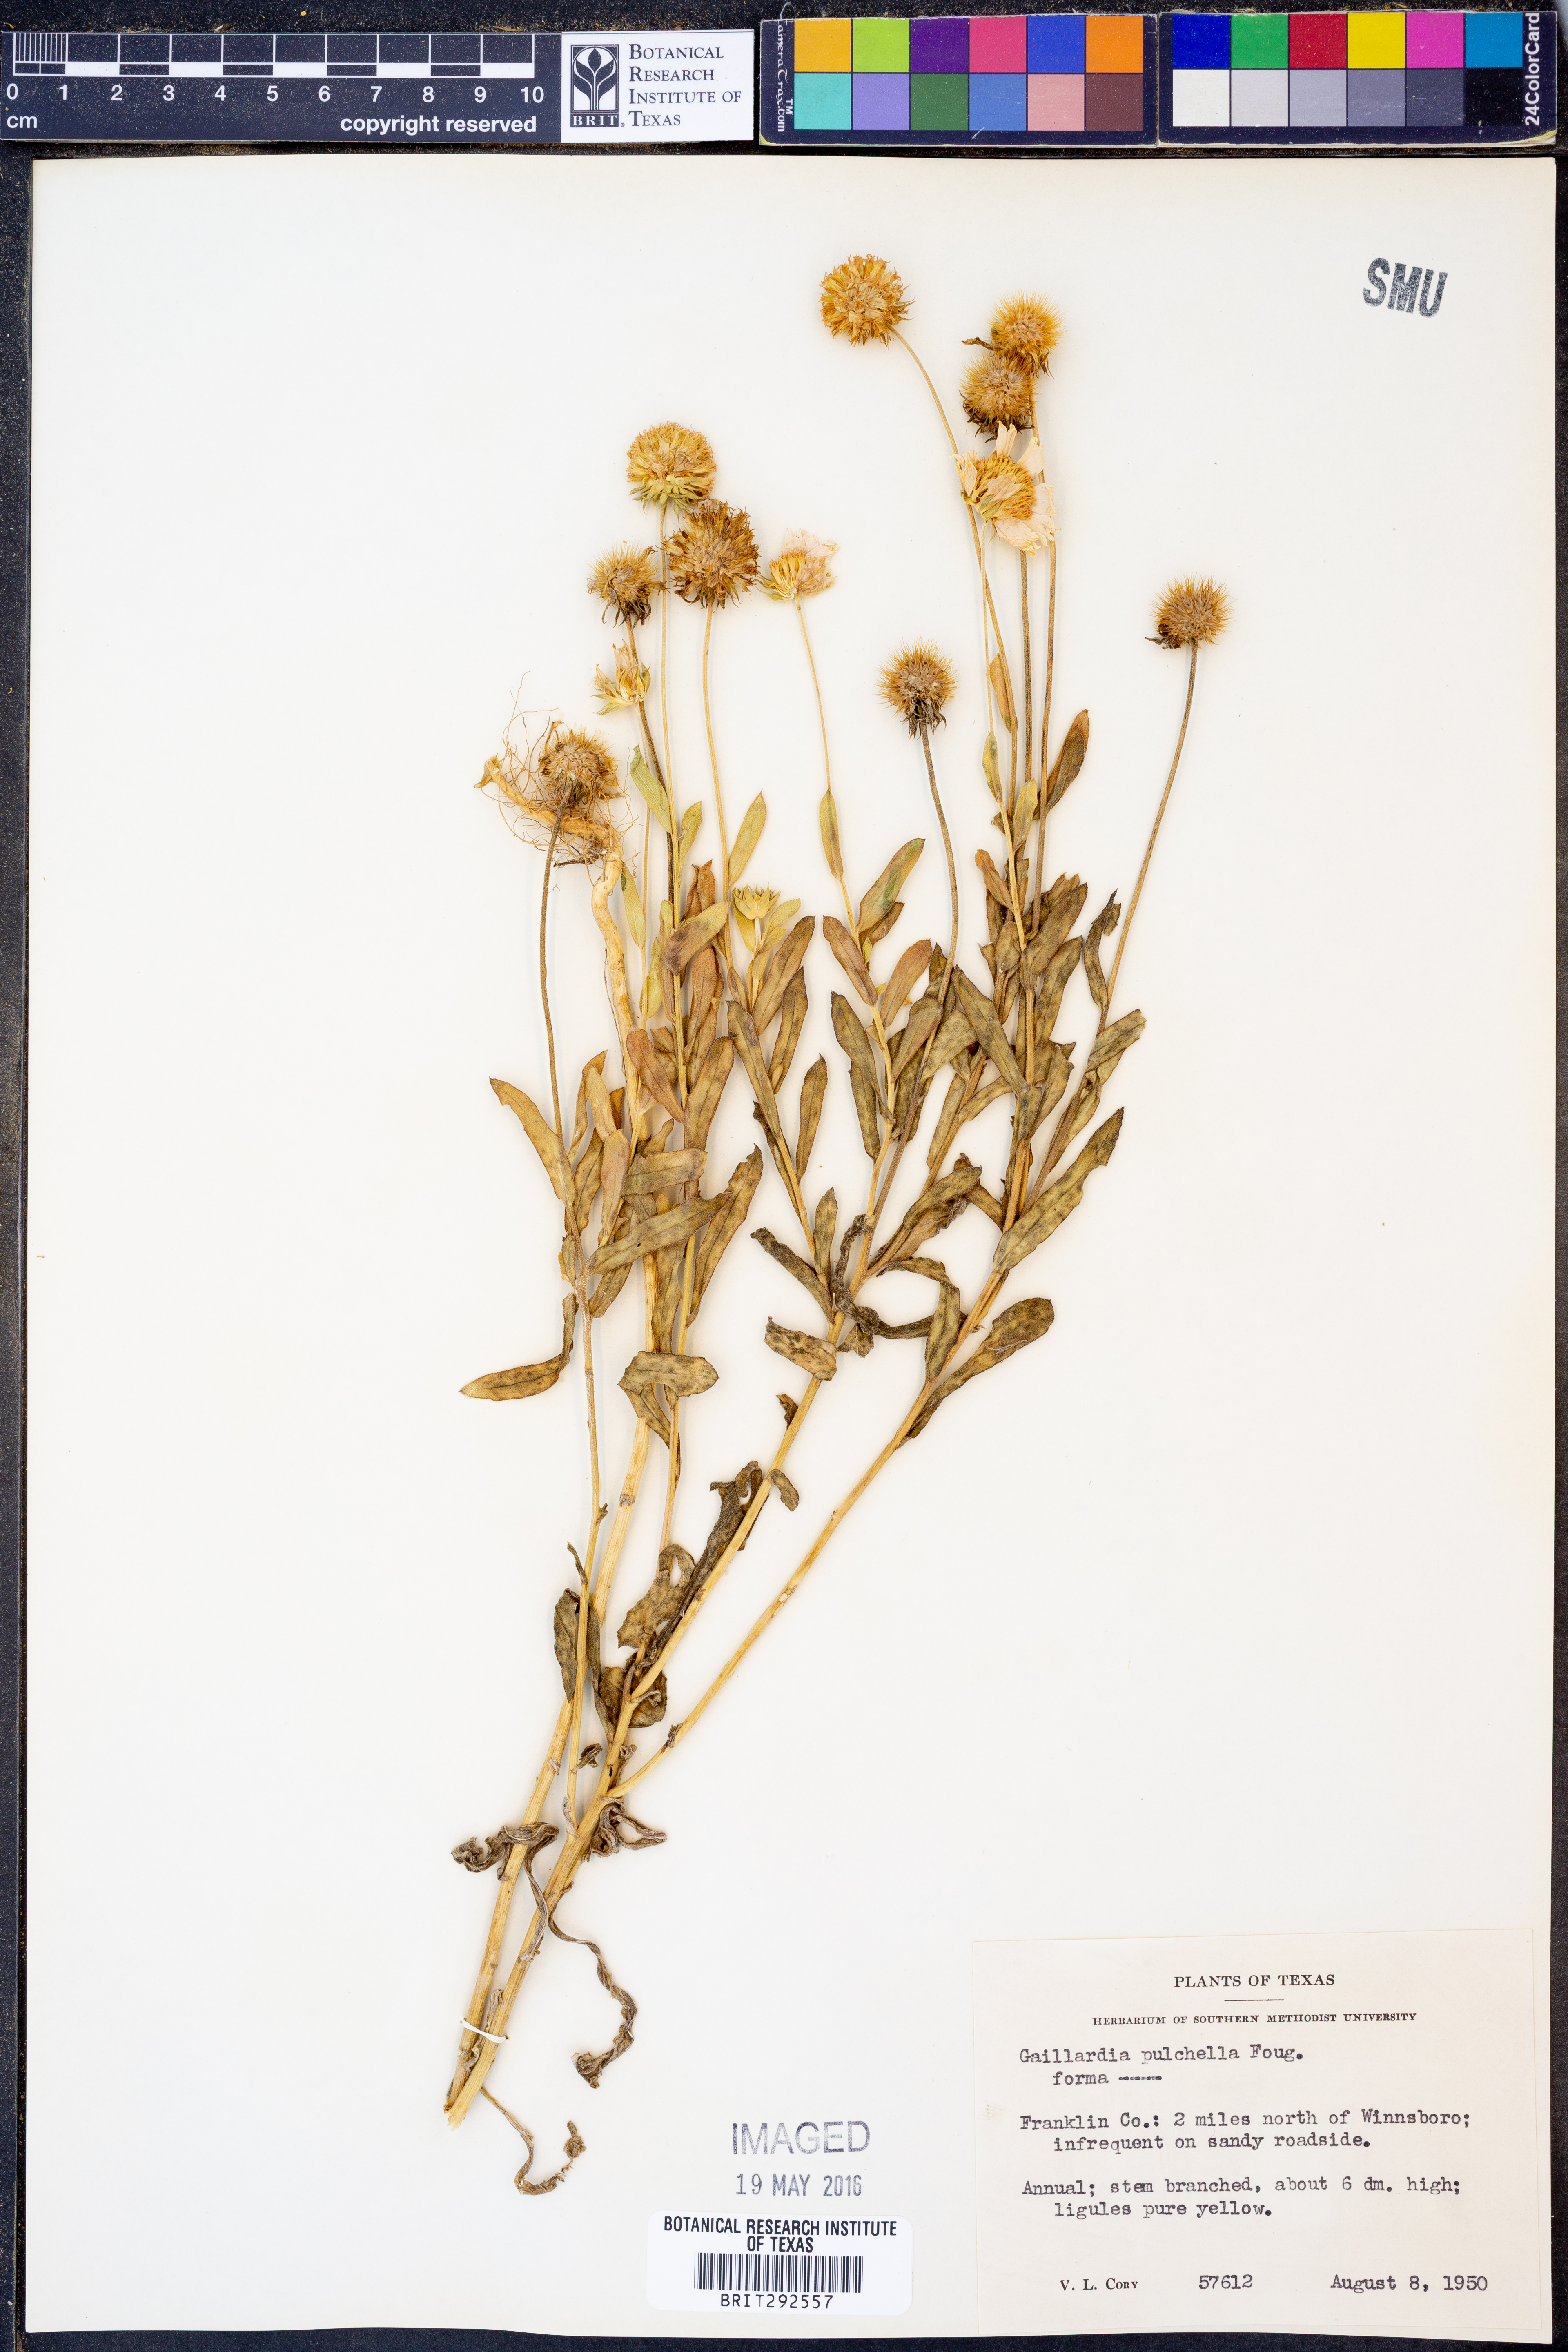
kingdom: Plantae
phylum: Tracheophyta
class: Magnoliopsida
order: Asterales
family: Asteraceae
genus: Gaillardia
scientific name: Gaillardia pulchella
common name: Firewheel
